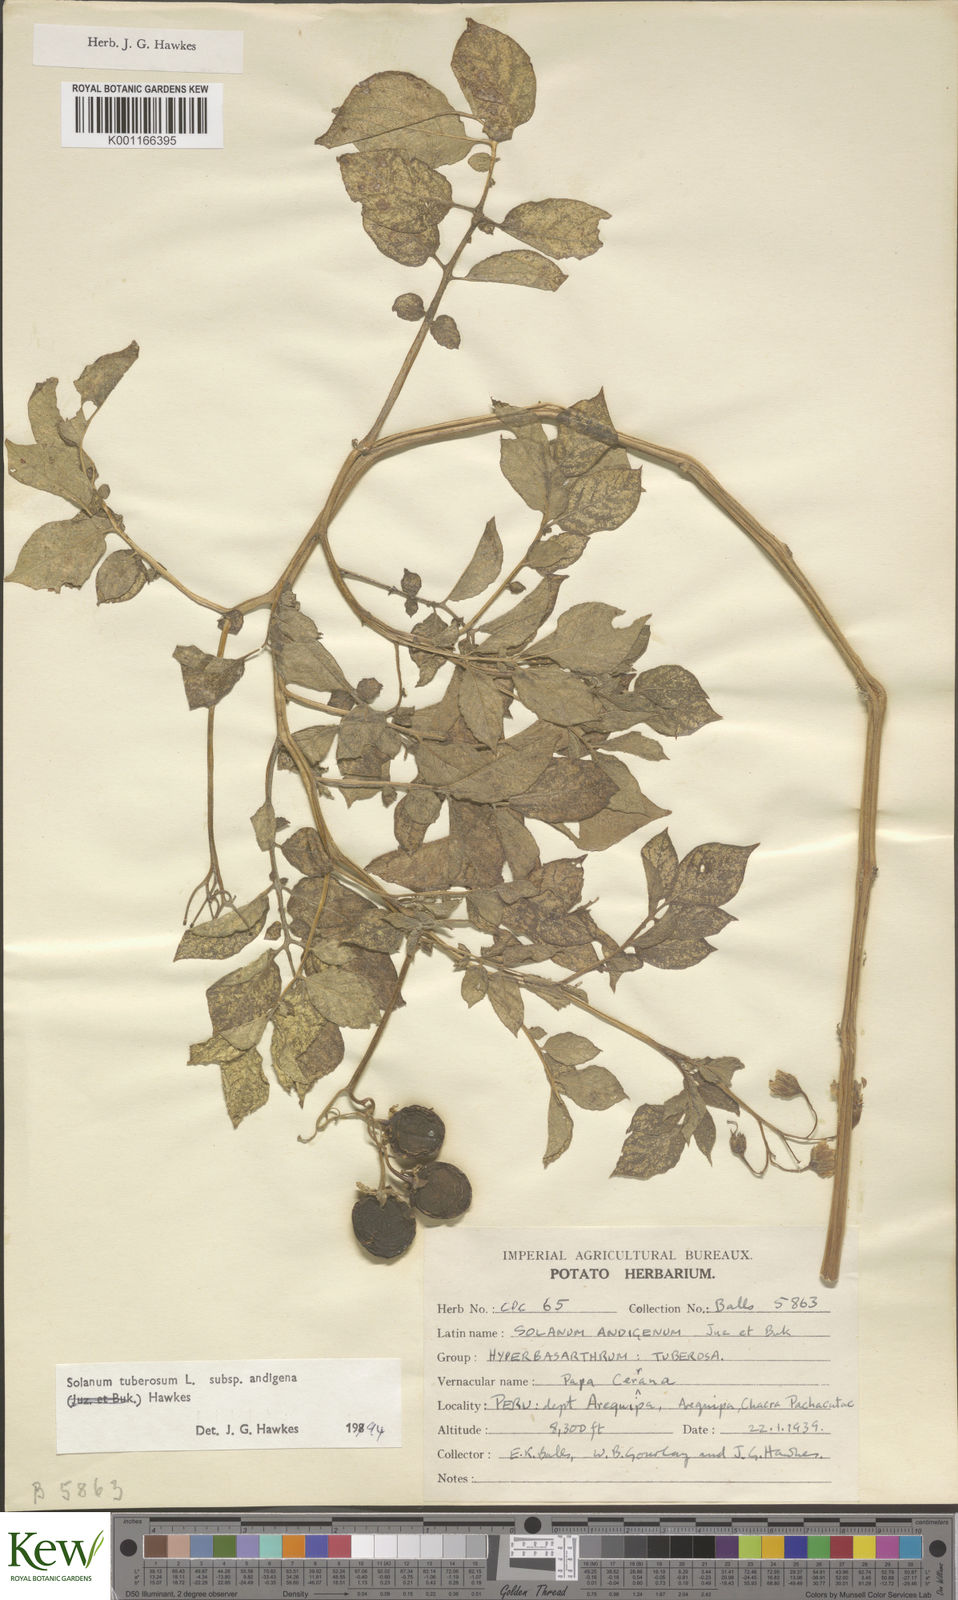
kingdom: Plantae
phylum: Tracheophyta
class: Magnoliopsida
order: Solanales
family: Solanaceae
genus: Solanum
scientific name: Solanum tuberosum
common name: Potato
